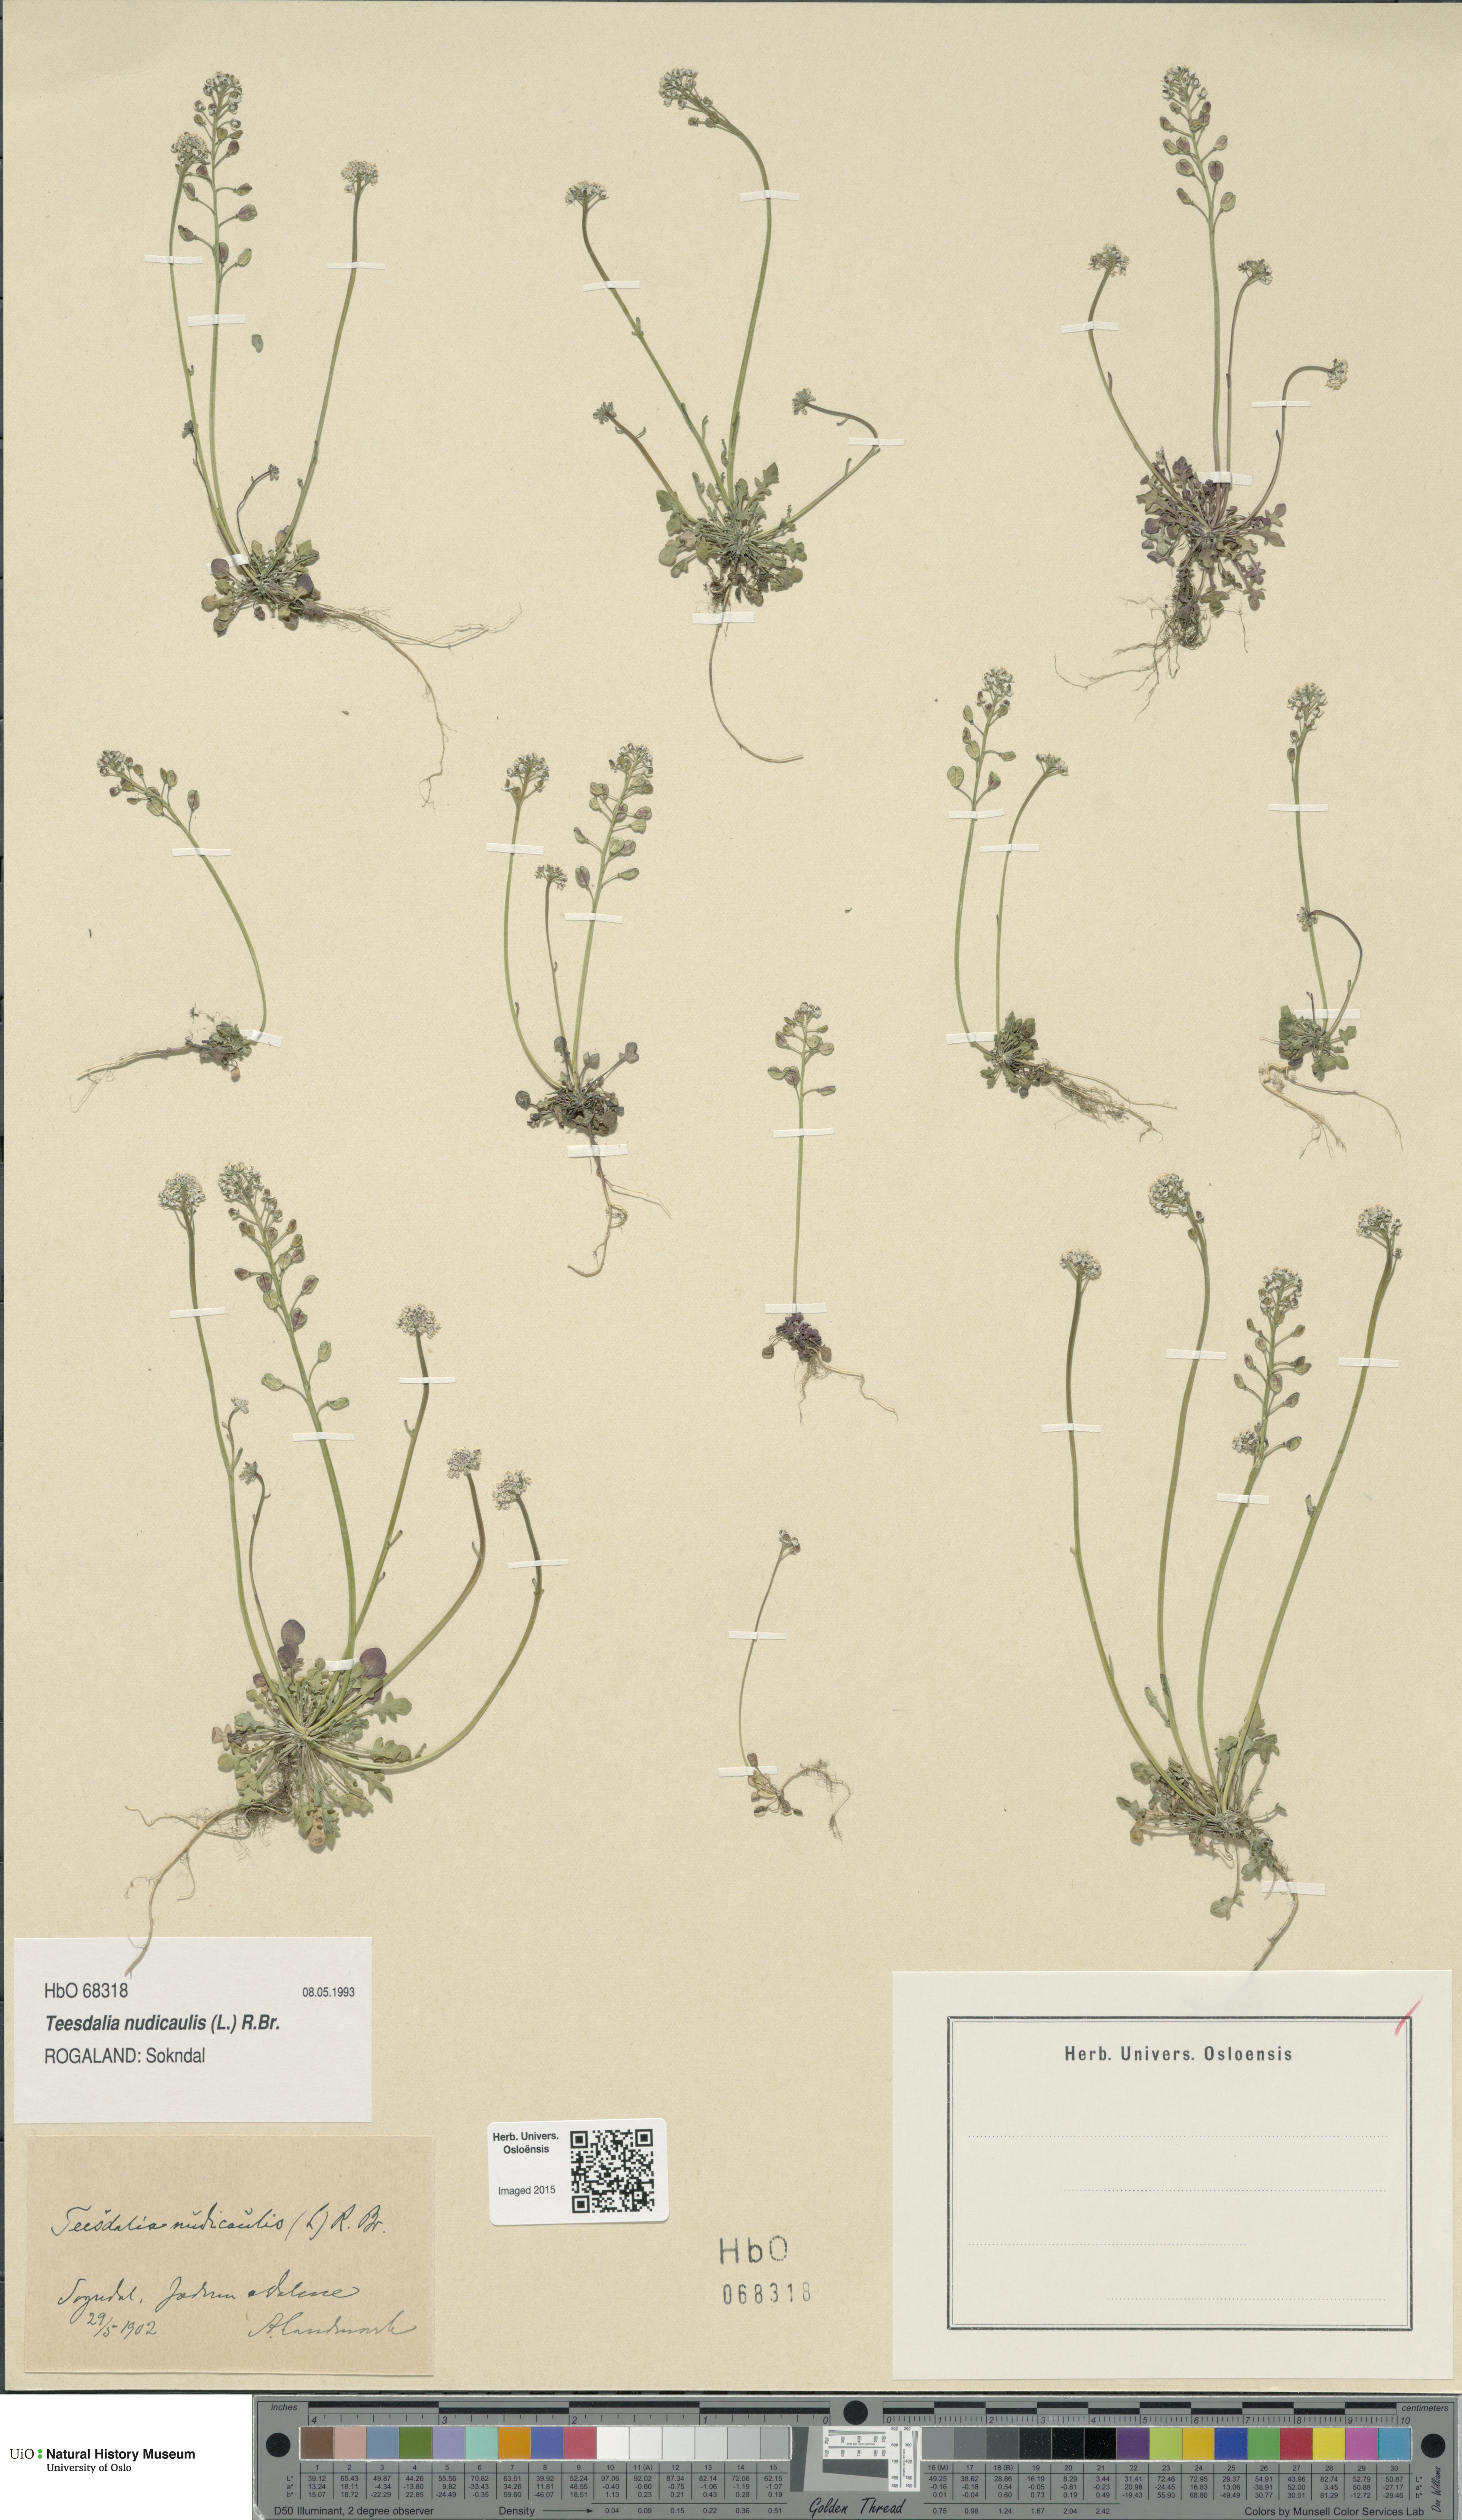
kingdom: Plantae
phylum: Tracheophyta
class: Magnoliopsida
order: Brassicales
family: Brassicaceae
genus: Teesdalia
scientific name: Teesdalia nudicaulis
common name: Shepherd's cress
